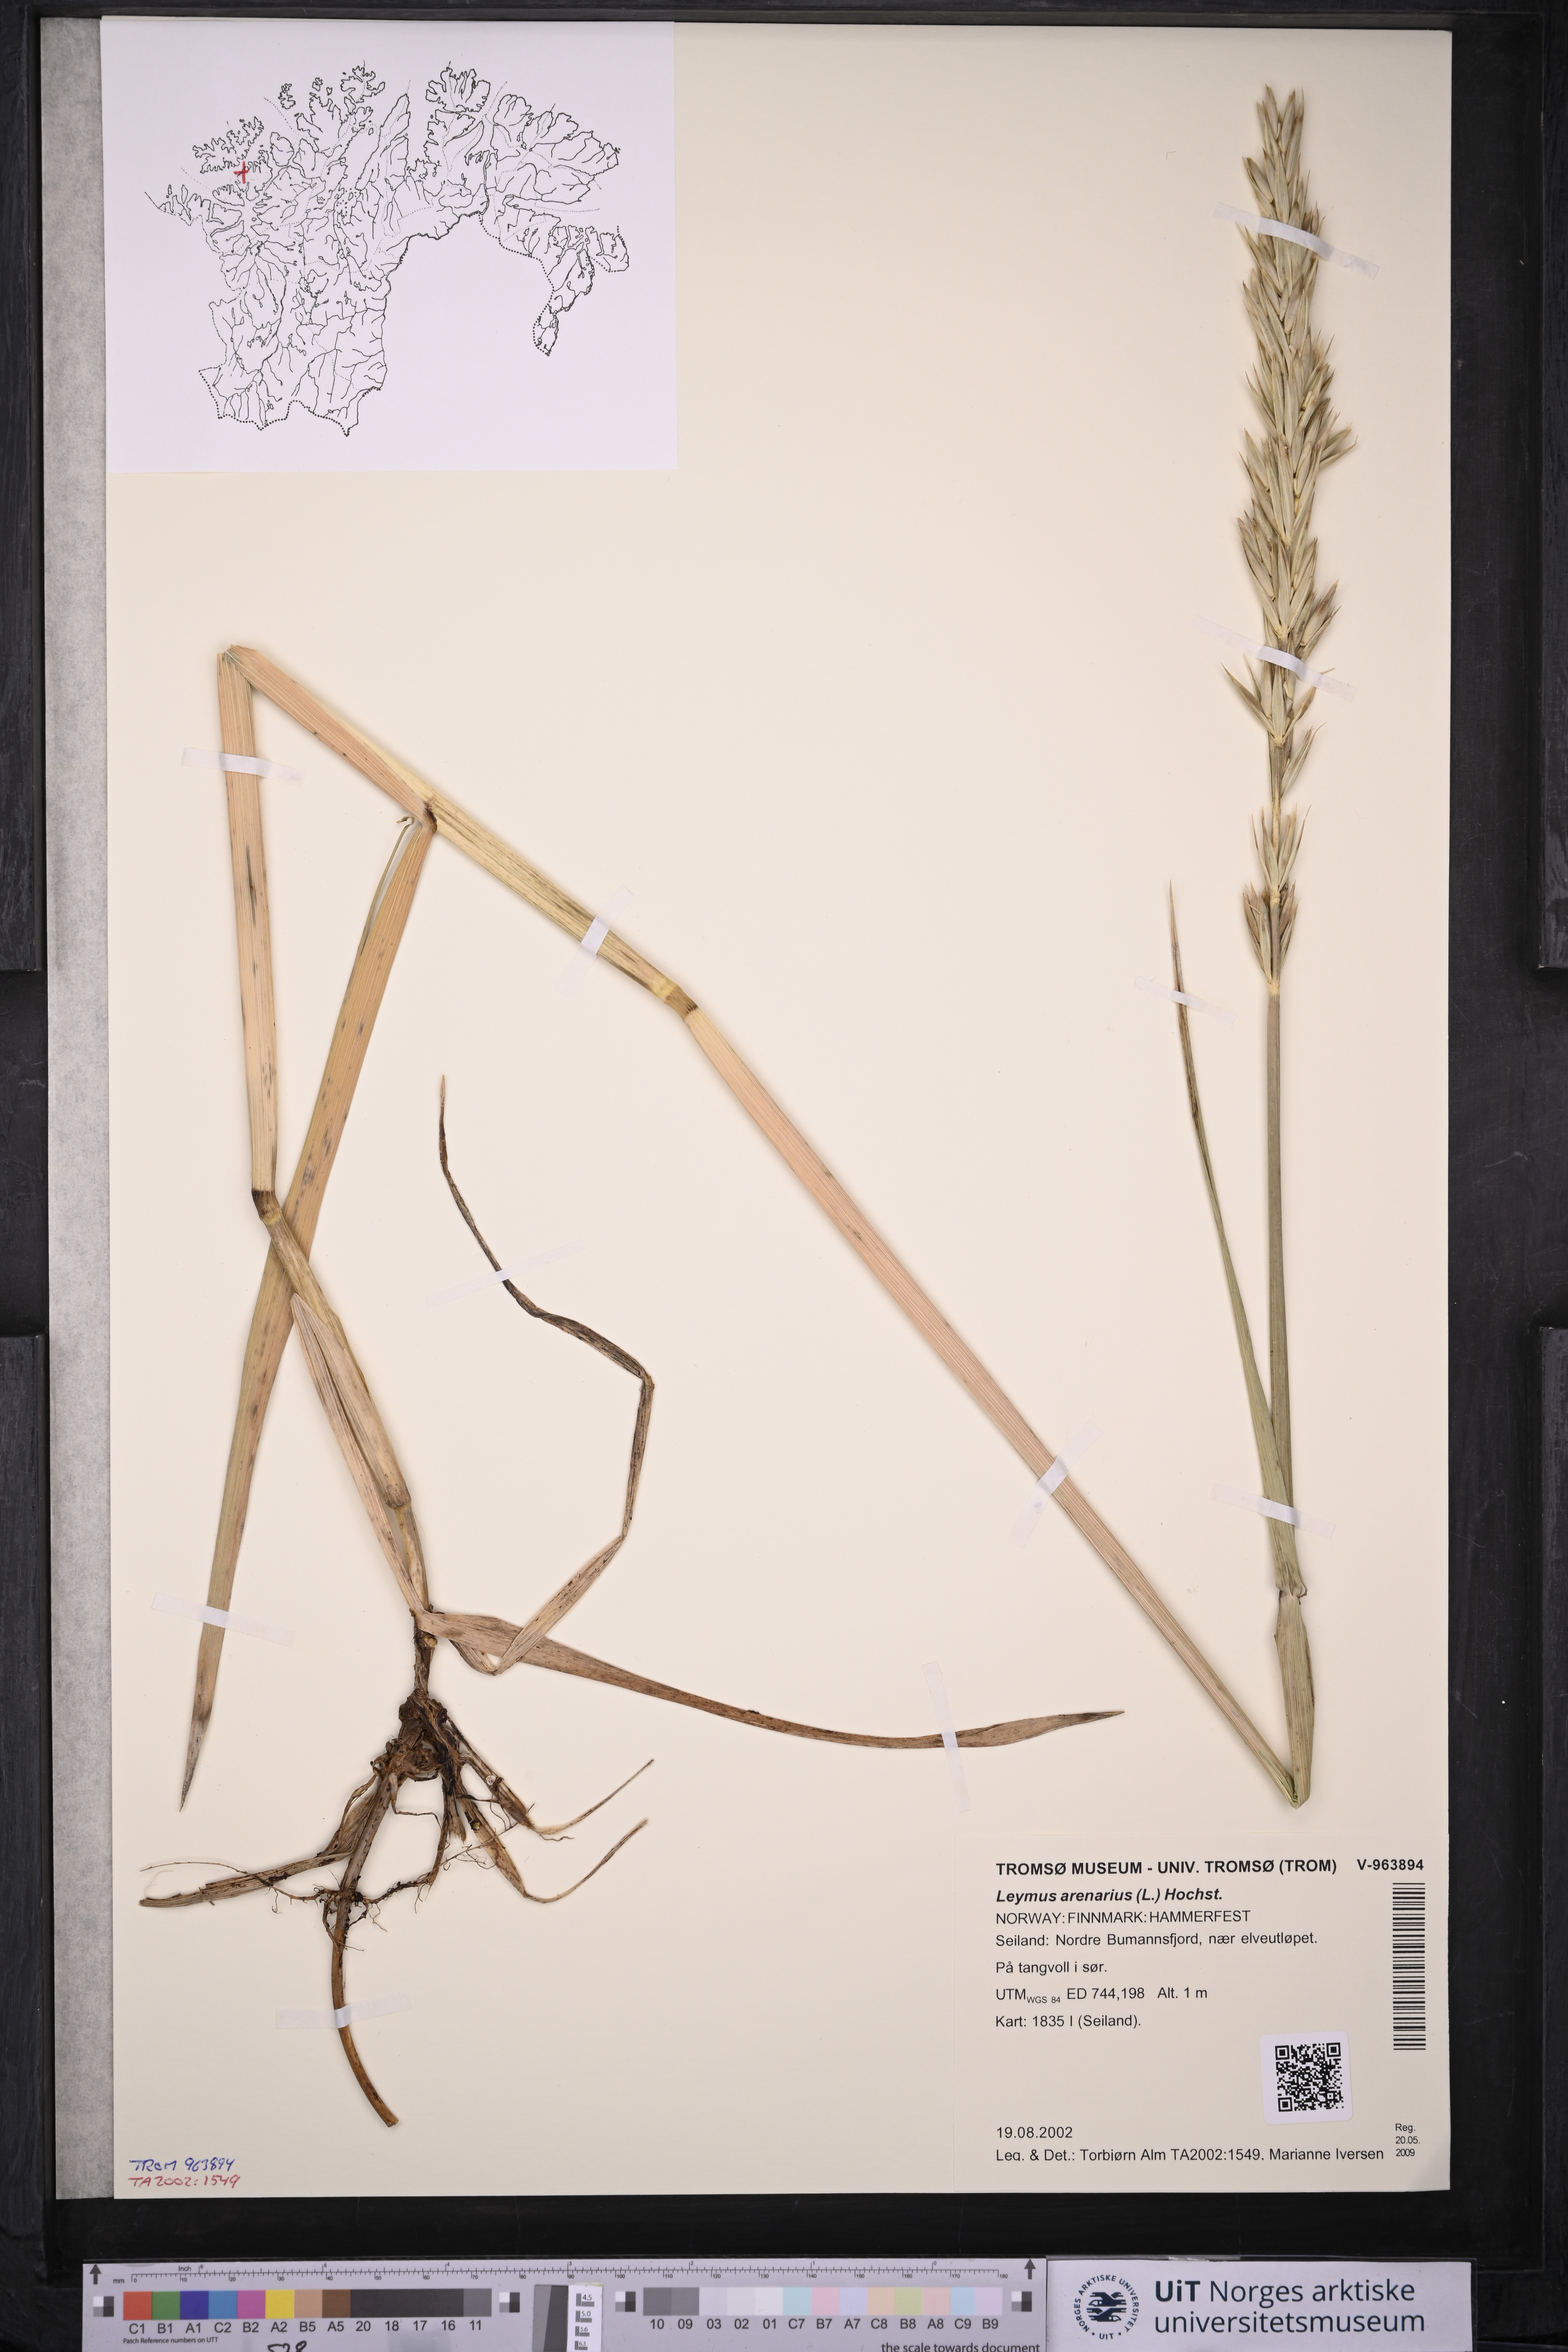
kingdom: Plantae
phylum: Tracheophyta
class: Liliopsida
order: Poales
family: Poaceae
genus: Leymus
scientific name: Leymus arenarius
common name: Lyme-grass
